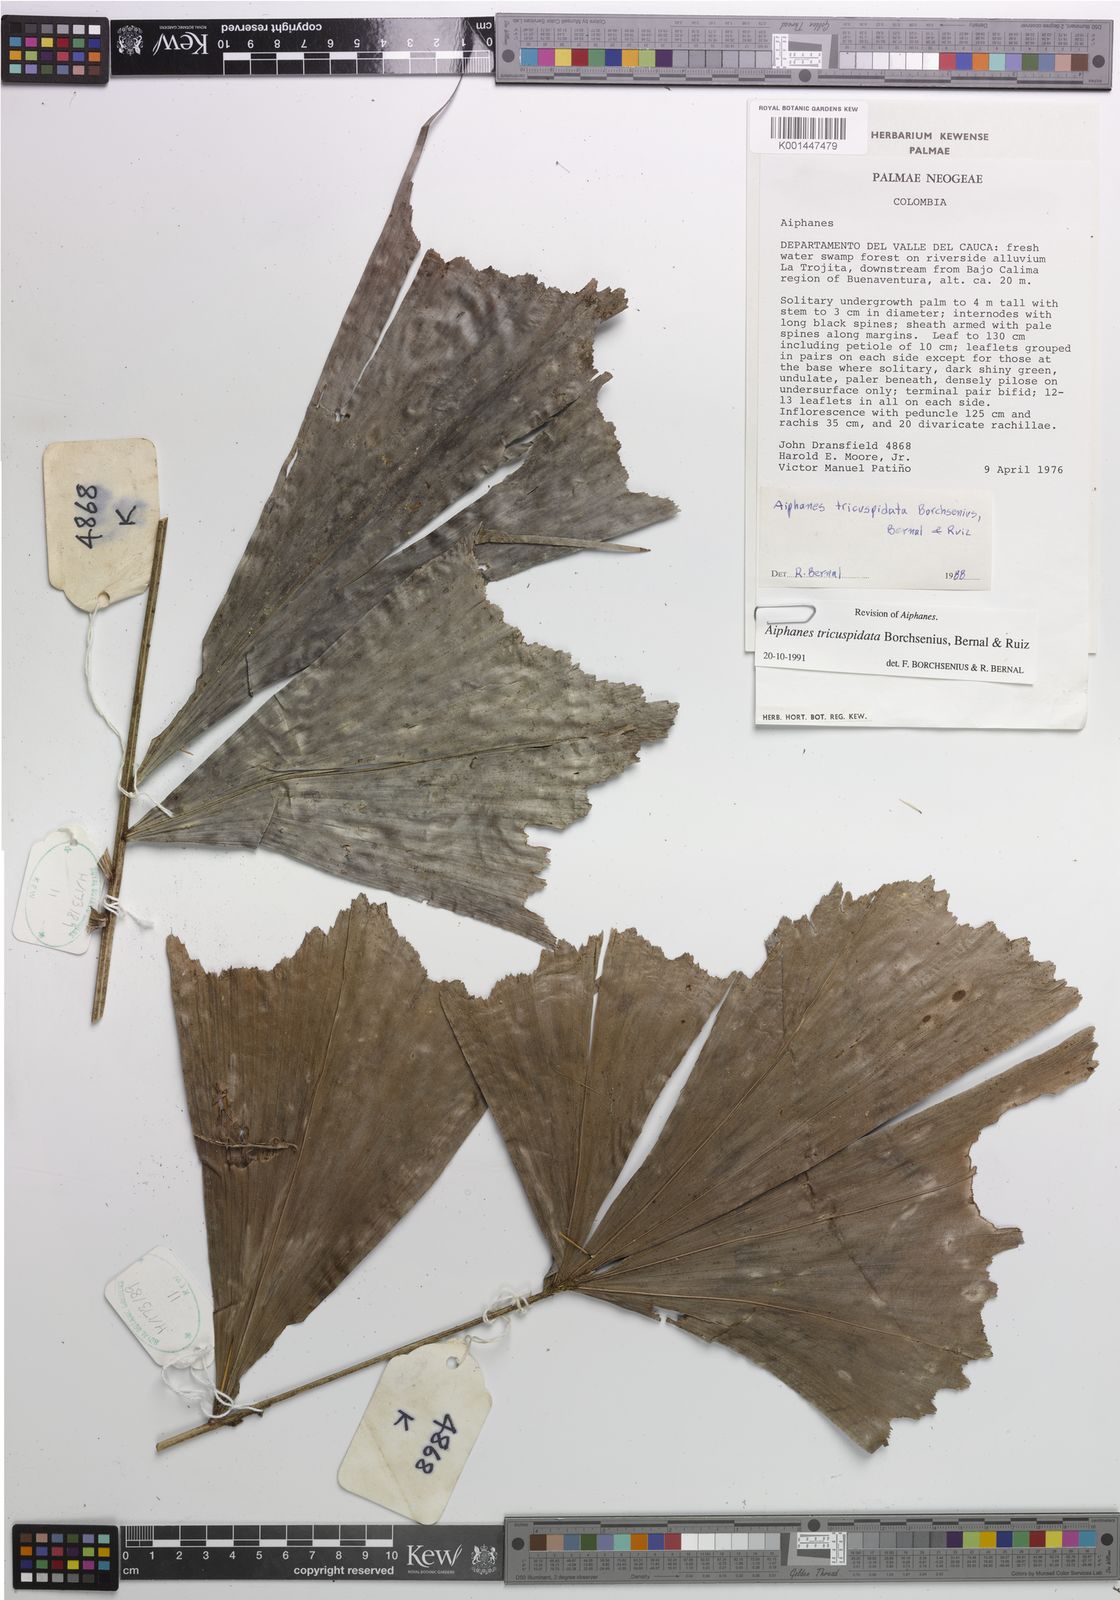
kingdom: Plantae
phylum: Tracheophyta
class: Liliopsida
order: Arecales
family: Arecaceae
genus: Aiphanes
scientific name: Aiphanes tricuspidata
